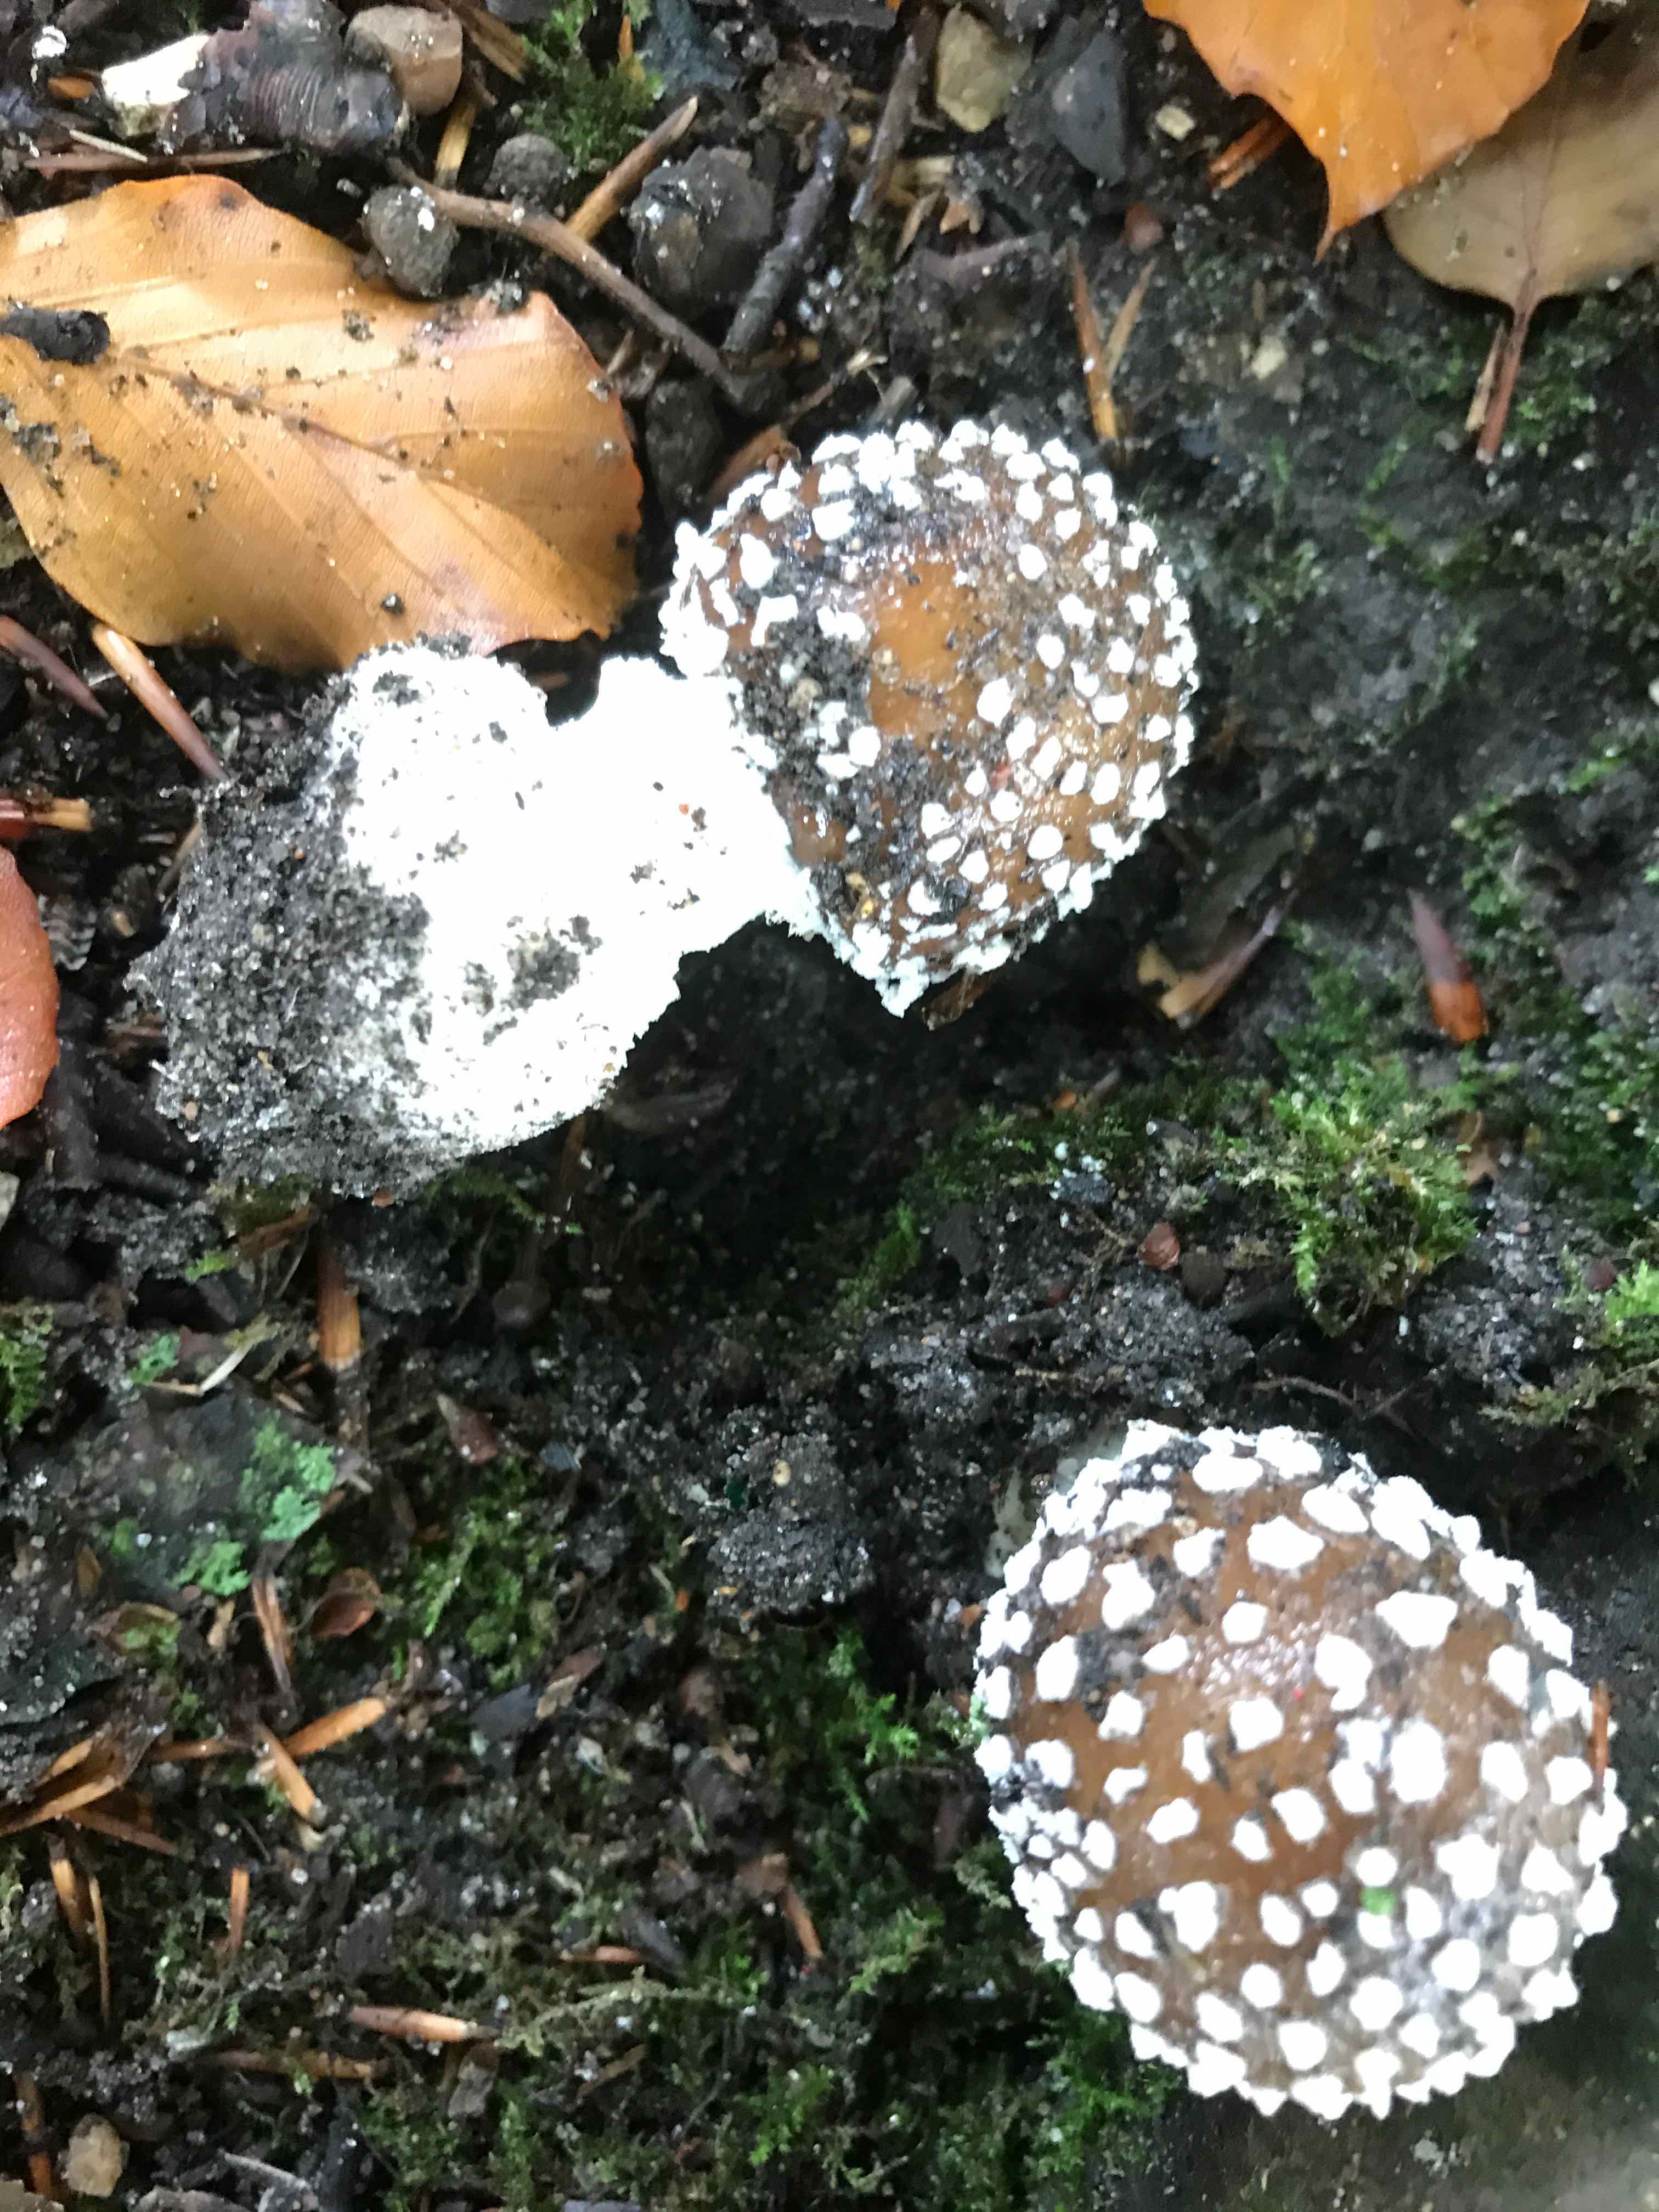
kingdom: Fungi
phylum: Basidiomycota
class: Agaricomycetes
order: Agaricales
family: Amanitaceae
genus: Amanita
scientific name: Amanita pantherina
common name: panter-fluesvamp
